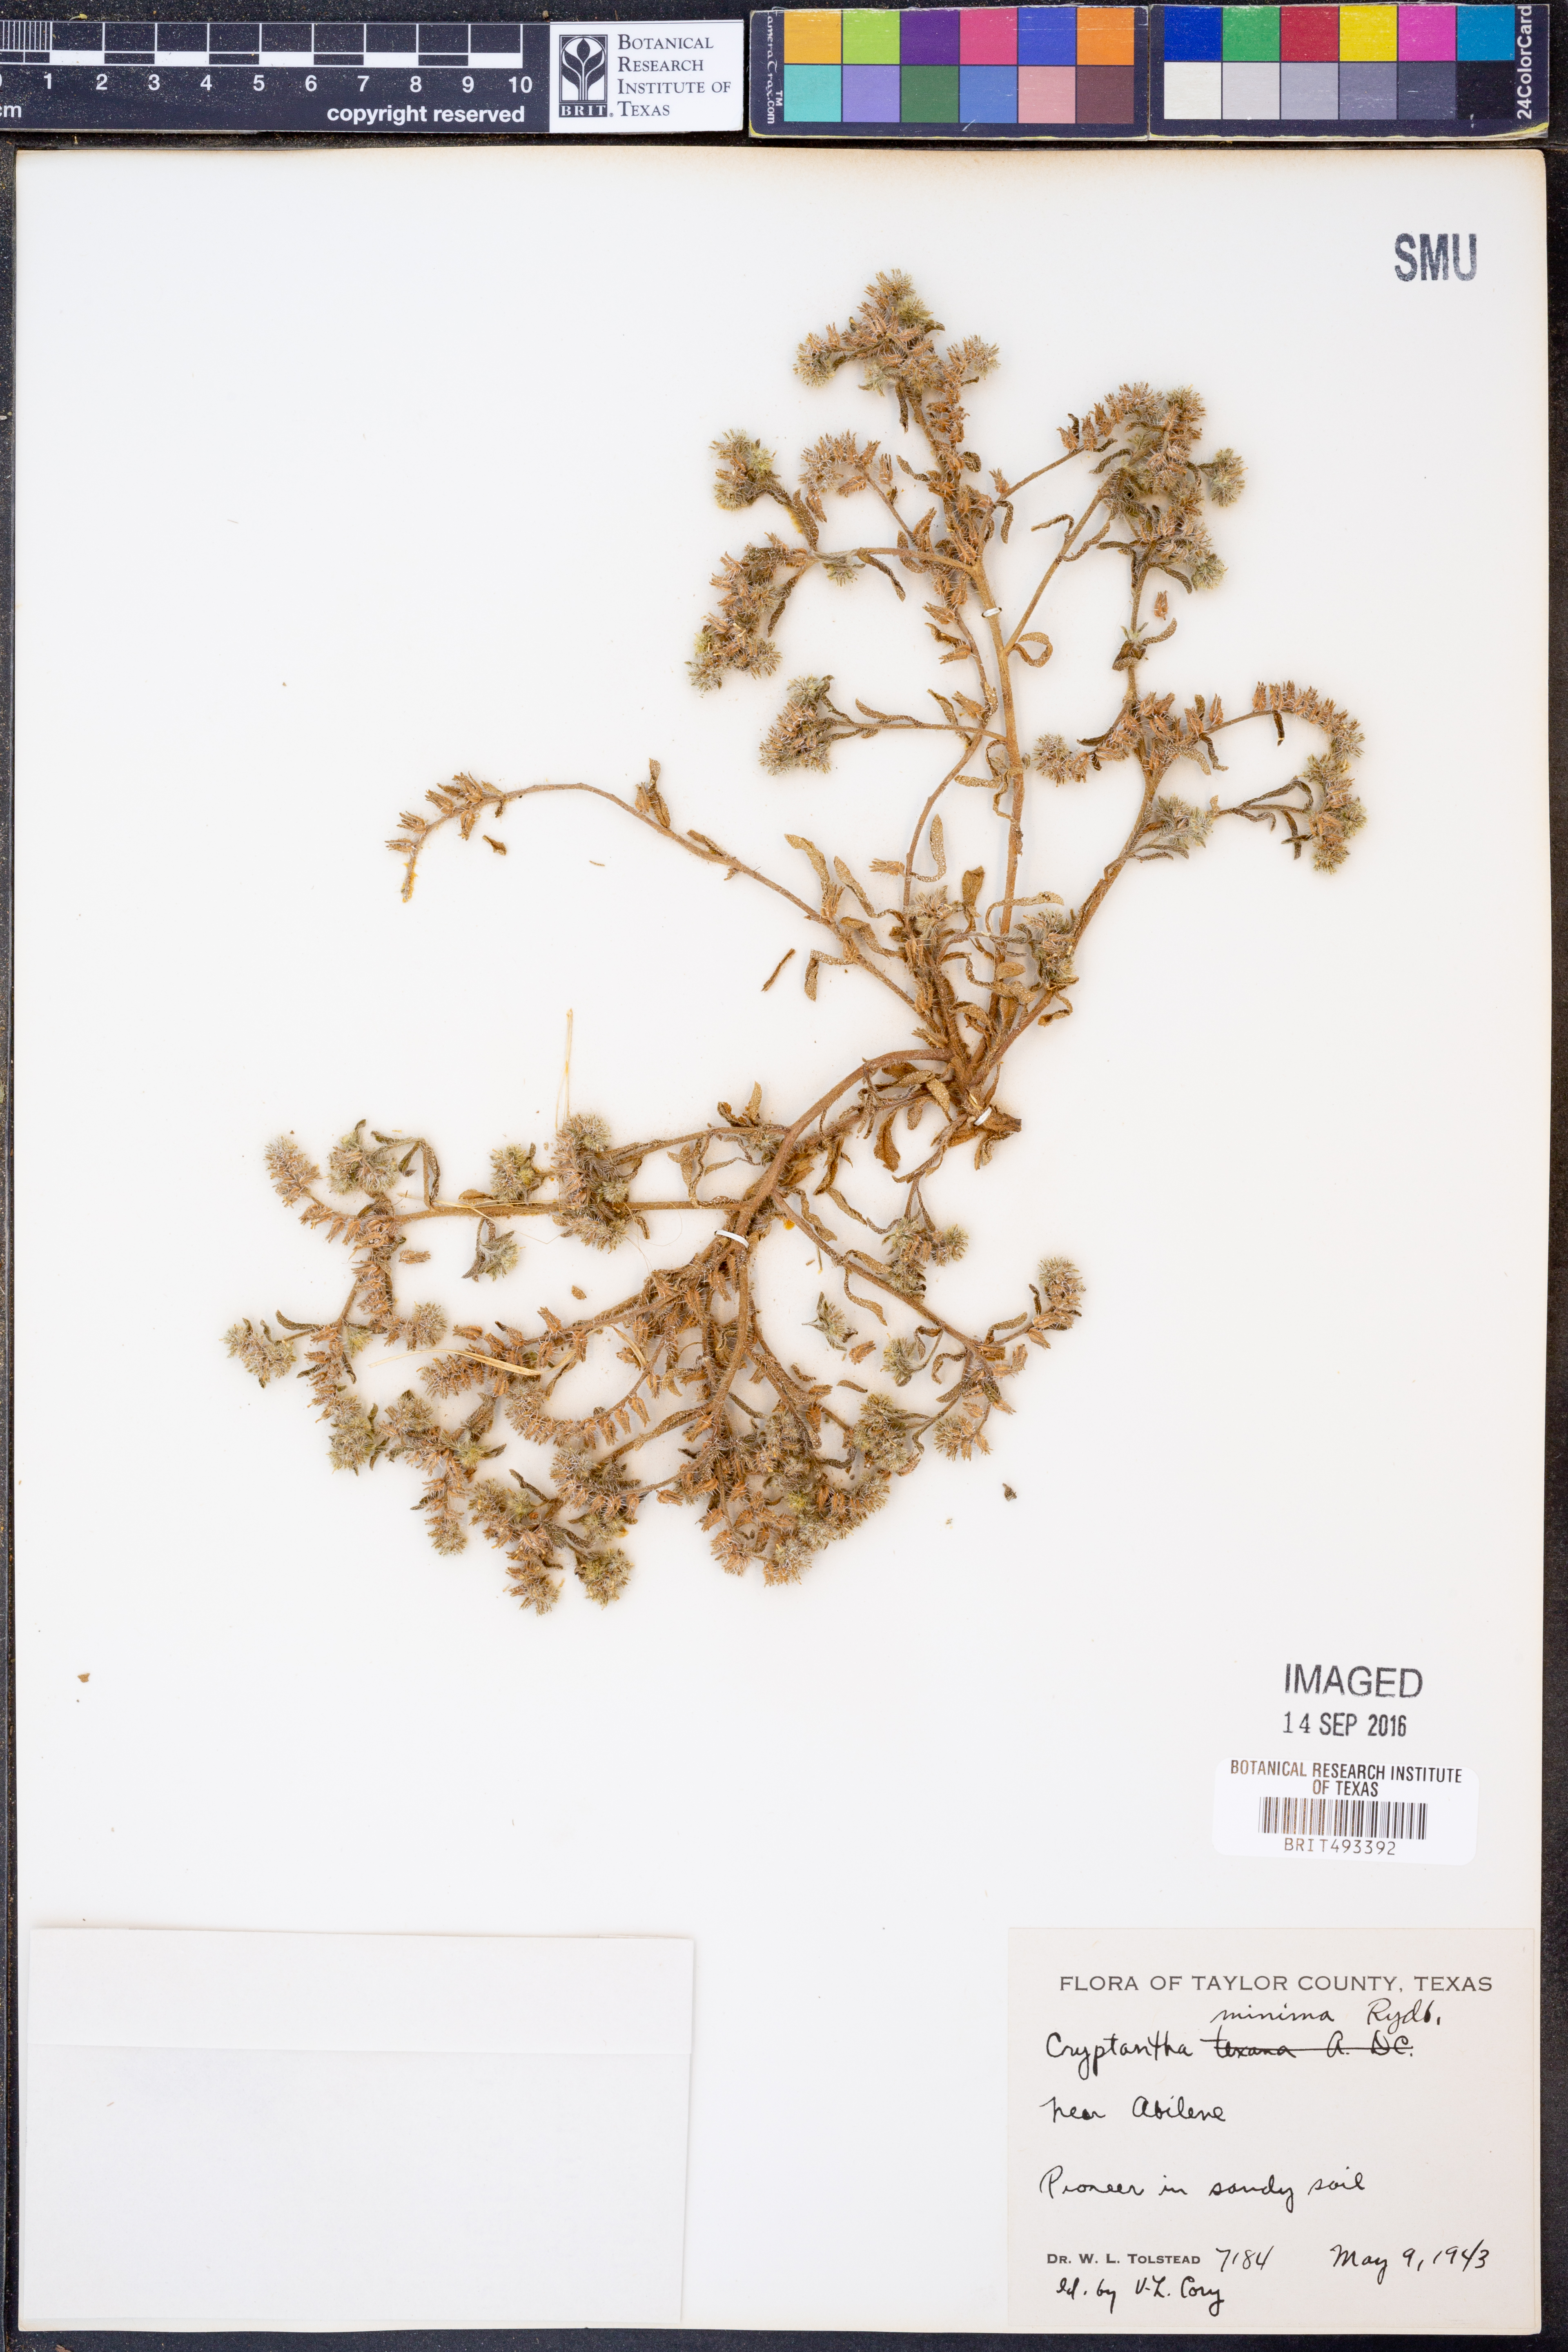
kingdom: Plantae
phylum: Tracheophyta
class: Magnoliopsida
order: Boraginales
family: Boraginaceae
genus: Cryptantha
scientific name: Cryptantha minima
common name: Little cat's-eye
